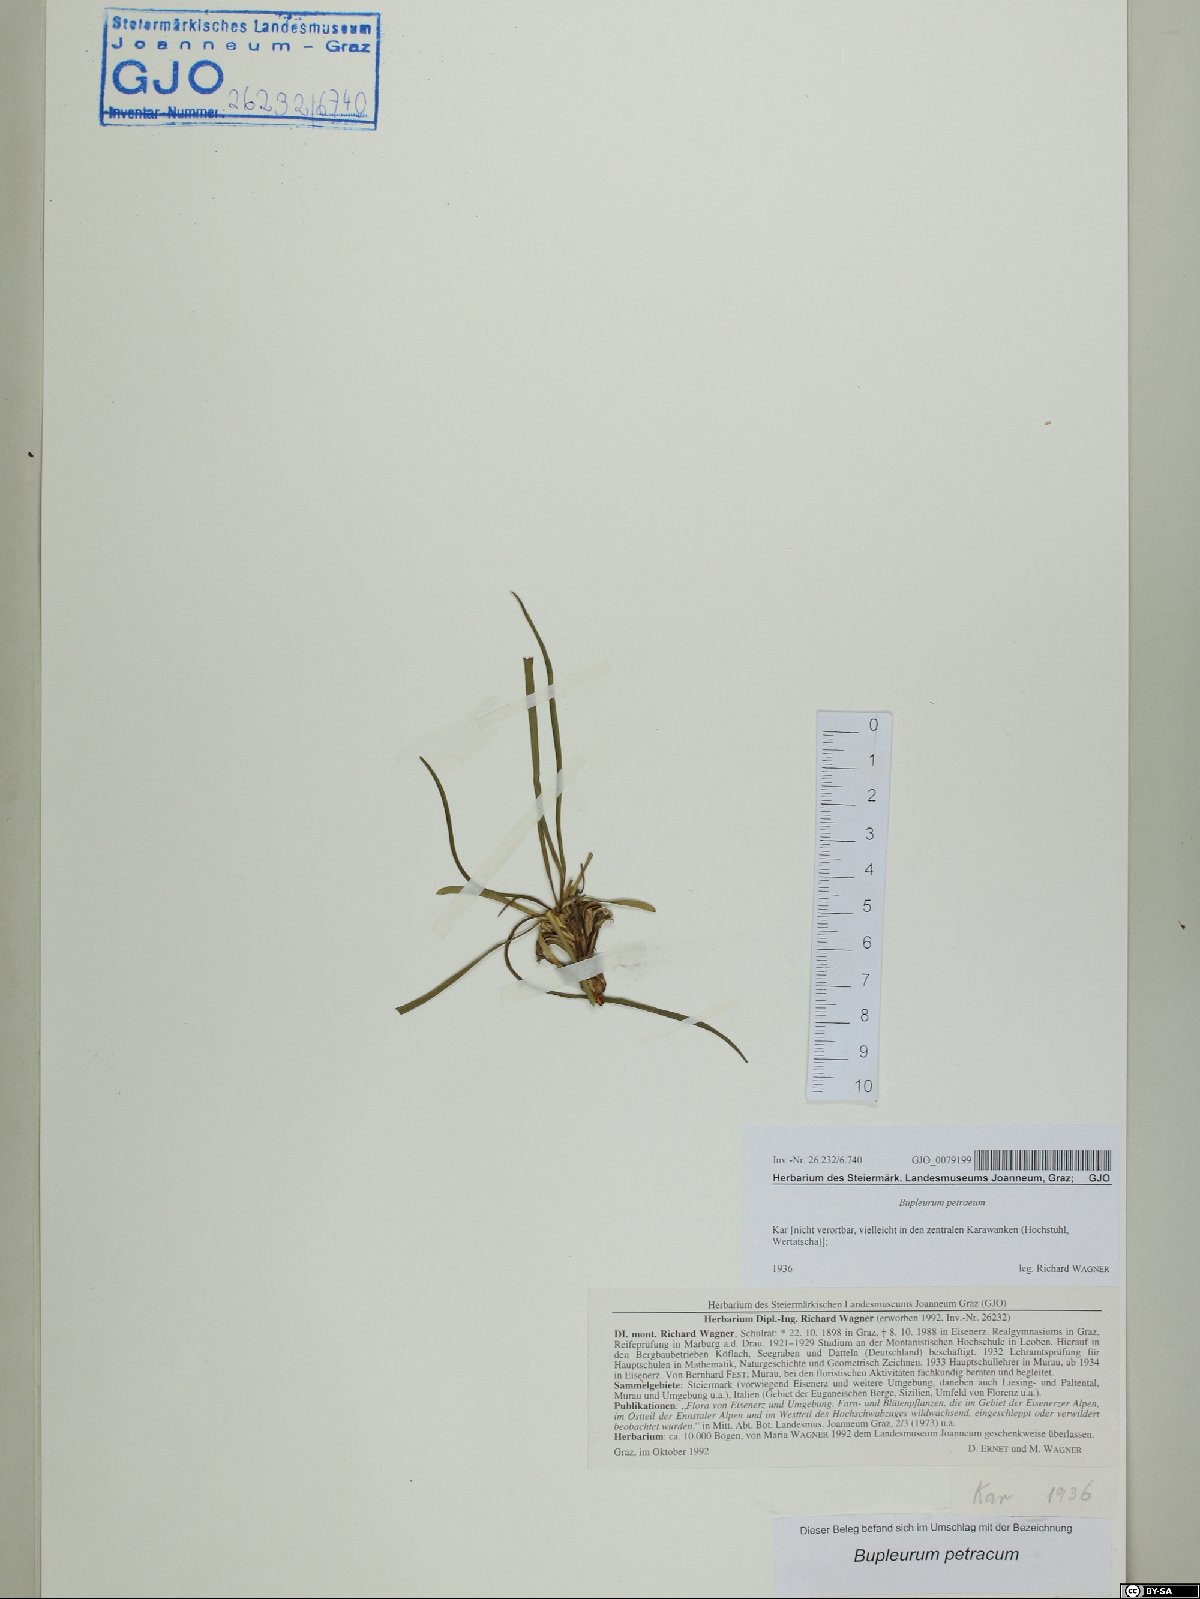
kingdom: Plantae
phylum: Tracheophyta
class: Magnoliopsida
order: Apiales
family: Apiaceae
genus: Bupleurum
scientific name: Bupleurum petraeum
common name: Rock hare's-ear
